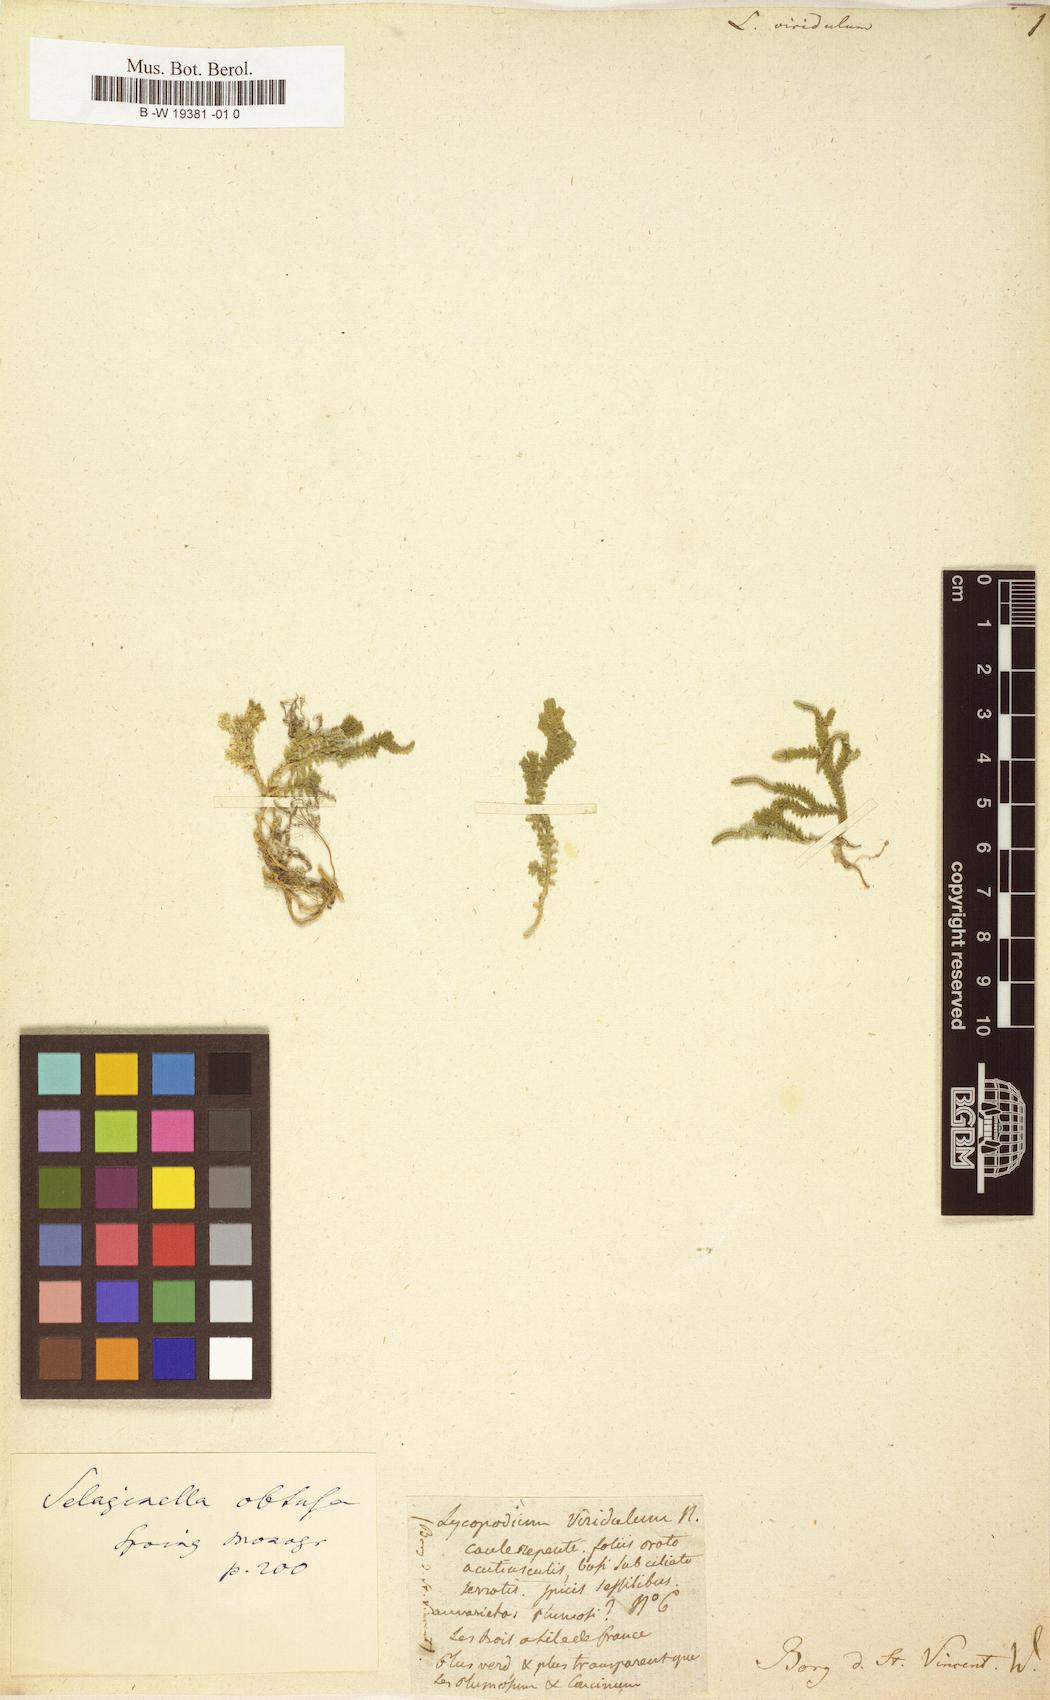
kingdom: Plantae
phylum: Tracheophyta
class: Lycopodiopsida
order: Selaginellales
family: Selaginellaceae
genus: Selaginella
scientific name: Selaginella
